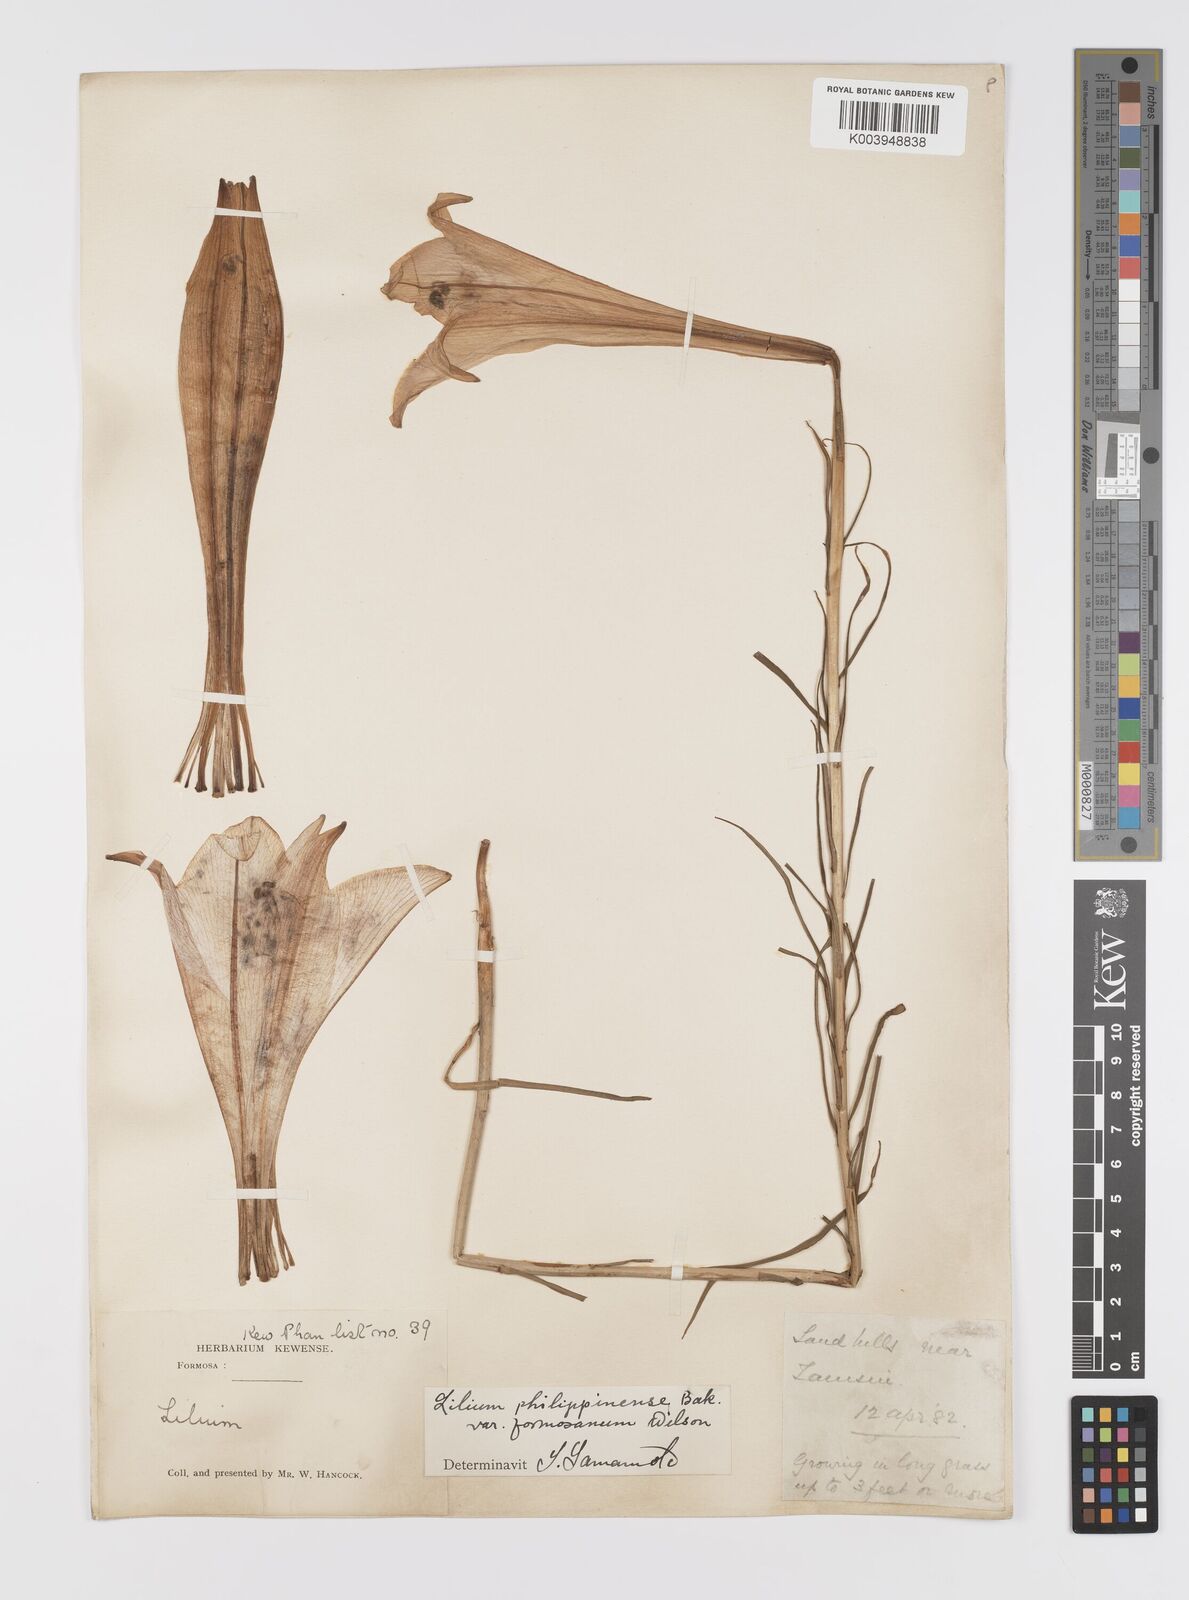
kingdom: Plantae
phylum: Tracheophyta
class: Liliopsida
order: Liliales
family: Liliaceae
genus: Lilium
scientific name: Lilium formosanum
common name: Formosa lily
